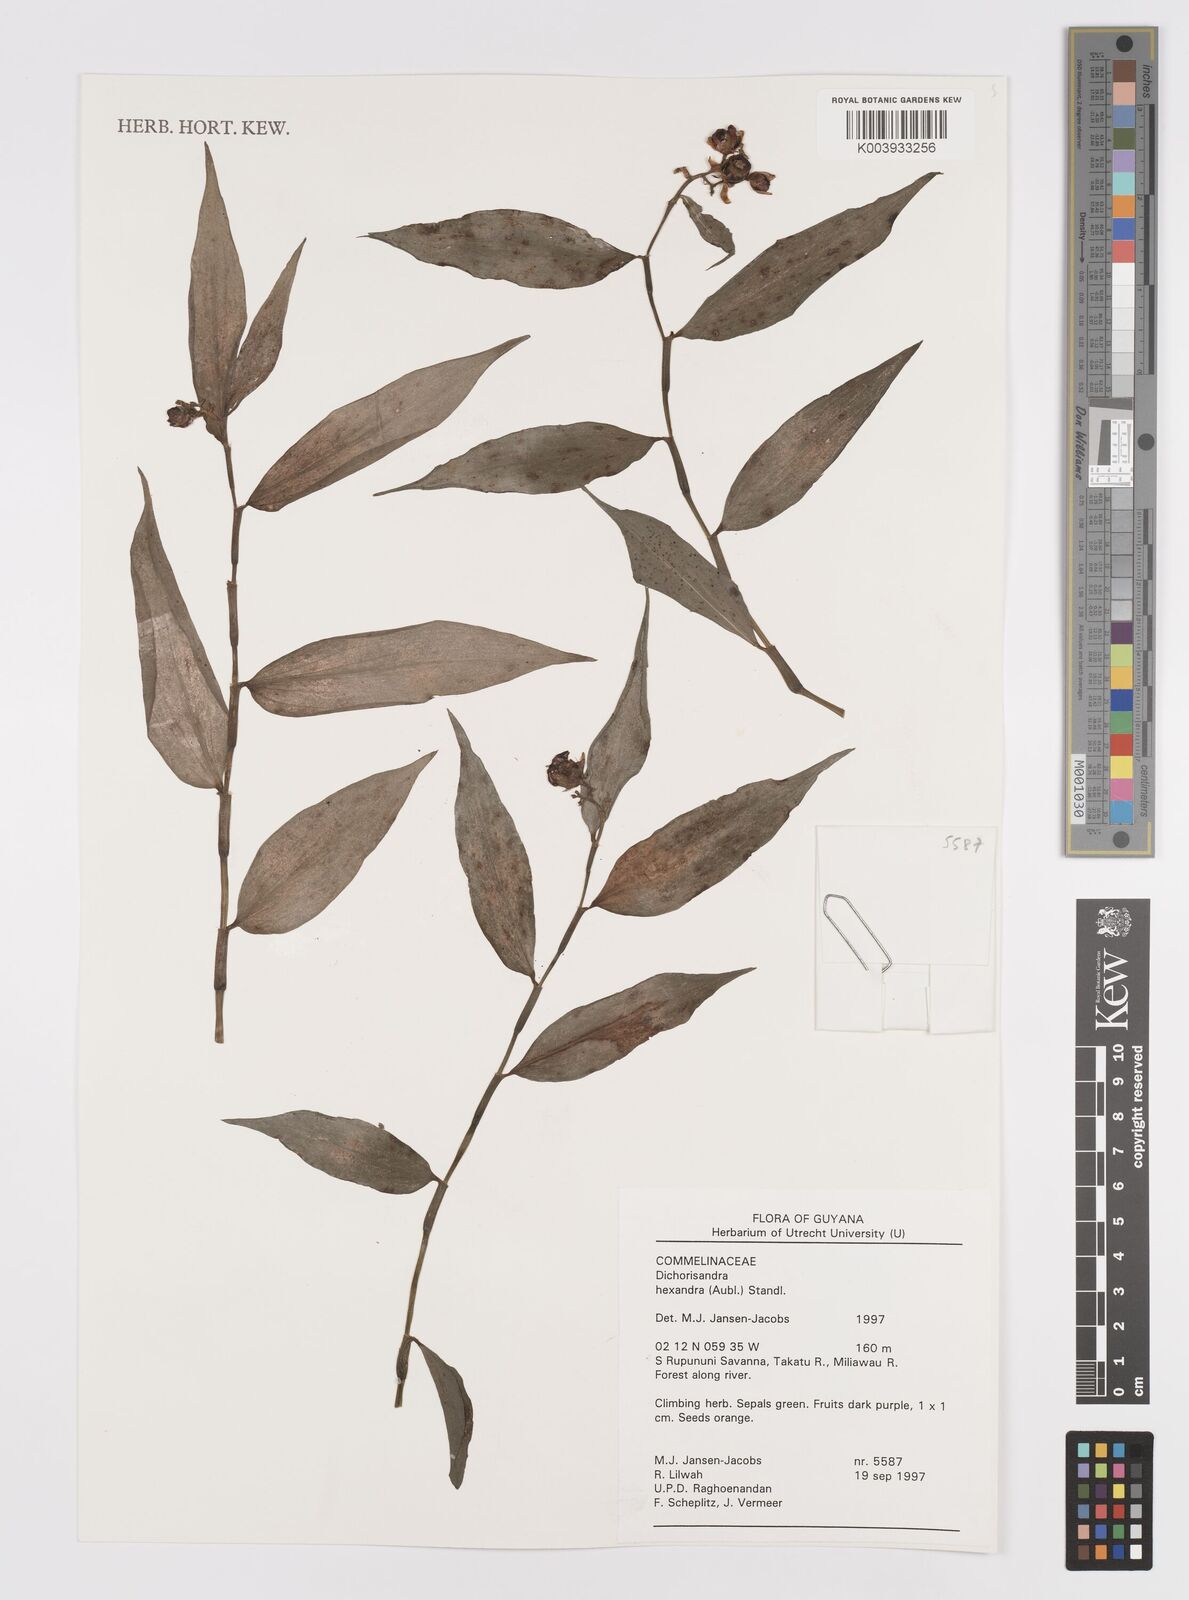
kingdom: Plantae
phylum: Tracheophyta
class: Liliopsida
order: Commelinales
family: Commelinaceae
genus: Dichorisandra
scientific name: Dichorisandra hexandra
